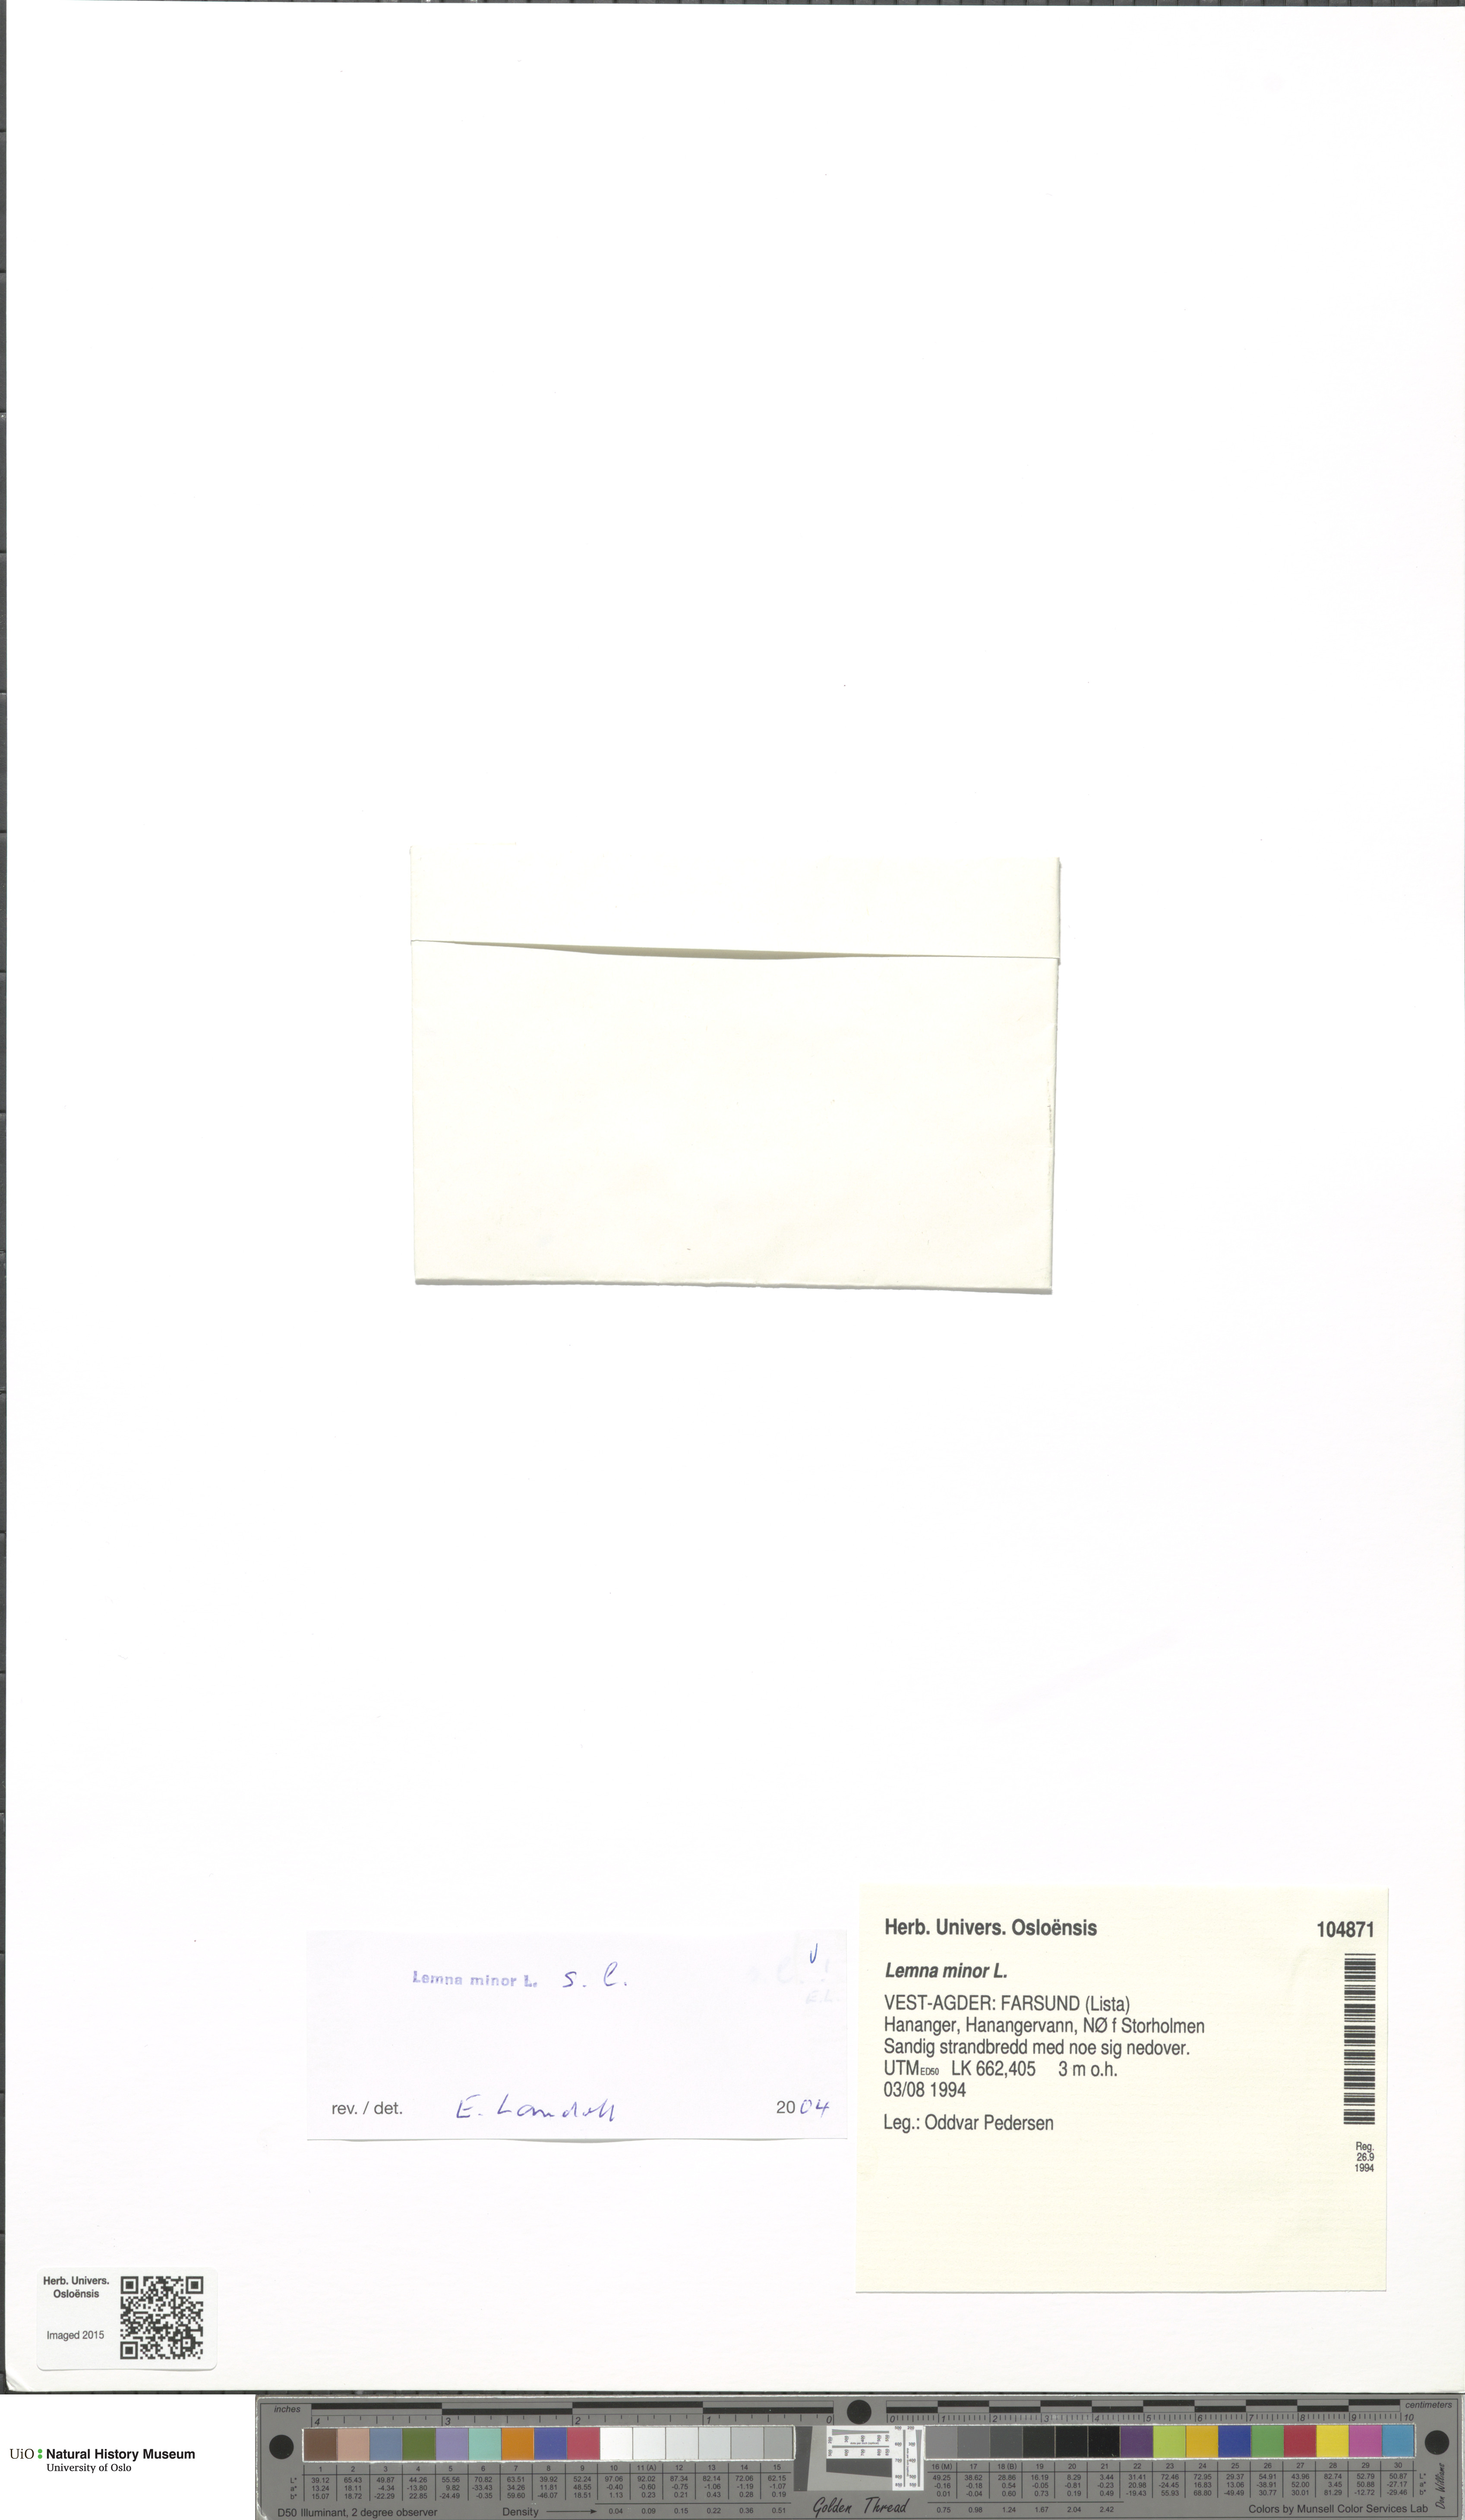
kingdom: Plantae
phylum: Tracheophyta
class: Liliopsida
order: Alismatales
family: Araceae
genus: Lemna
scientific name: Lemna minor
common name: Common duckweed
